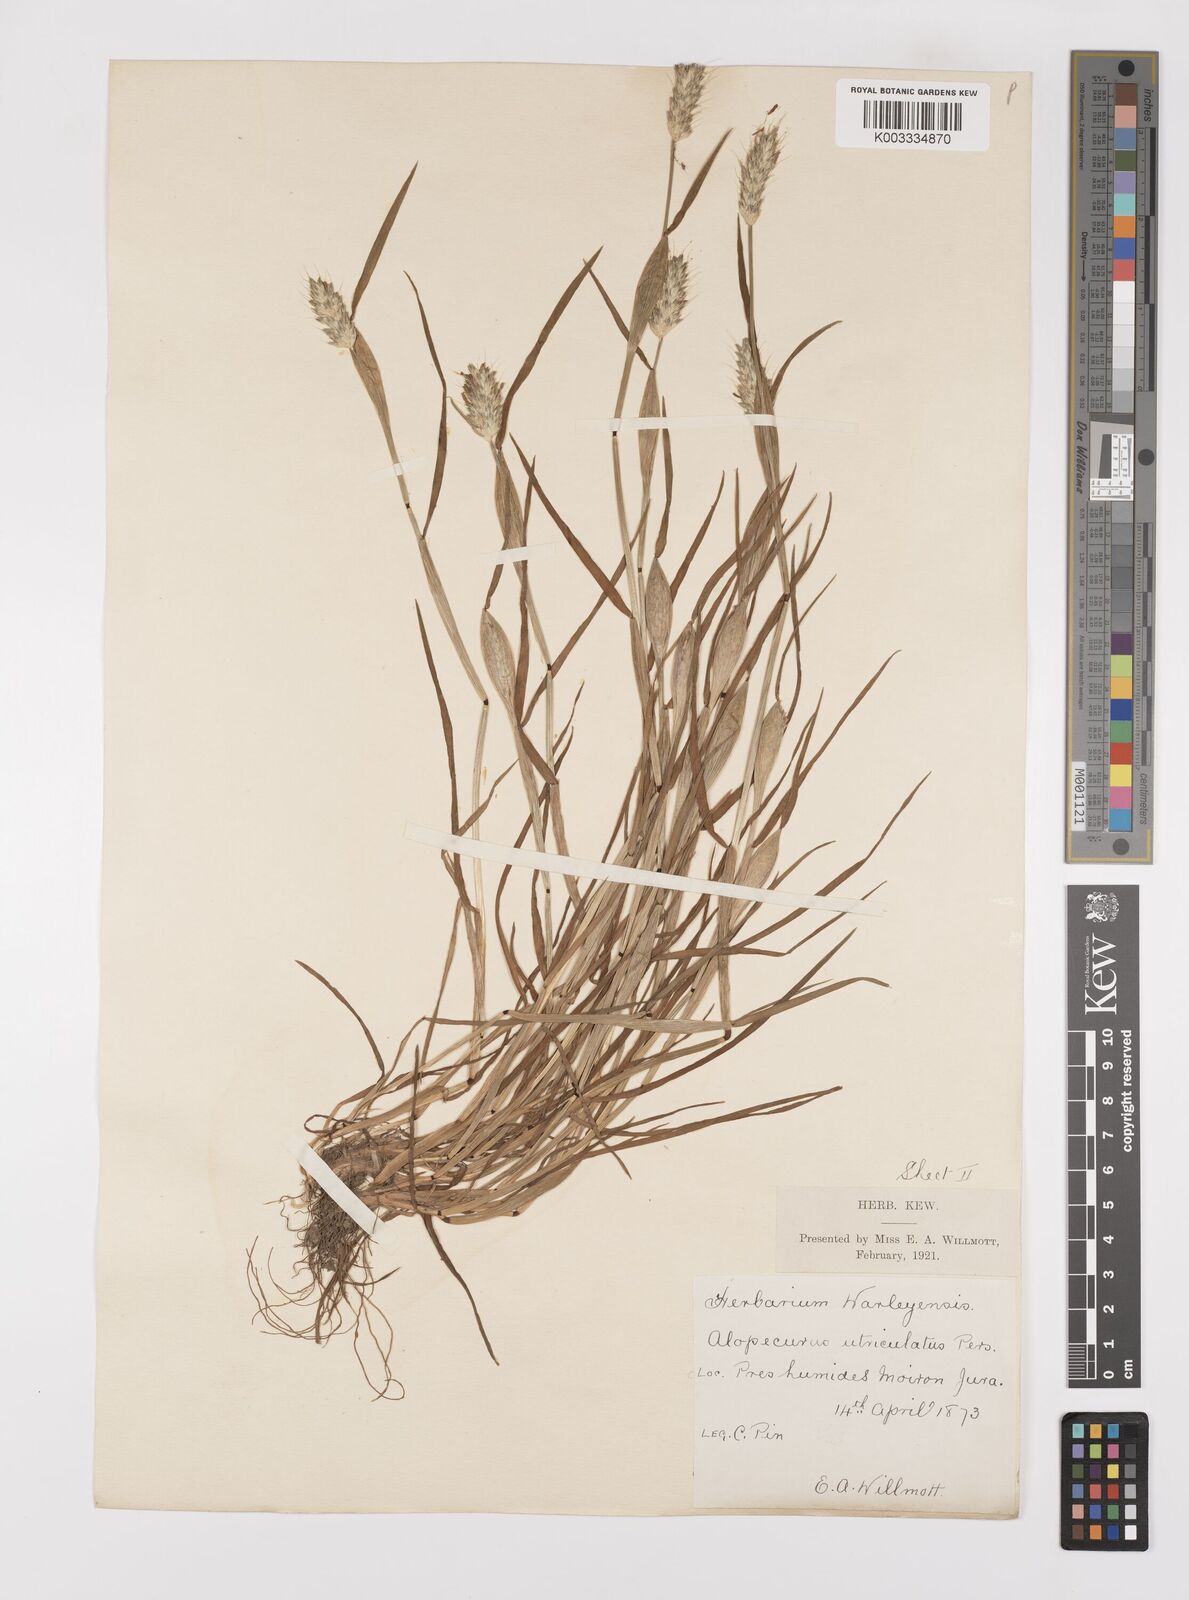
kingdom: Plantae
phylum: Tracheophyta
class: Liliopsida
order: Poales
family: Poaceae
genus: Alopecurus
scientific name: Alopecurus rendlei
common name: Rendle's meadow foxtail
